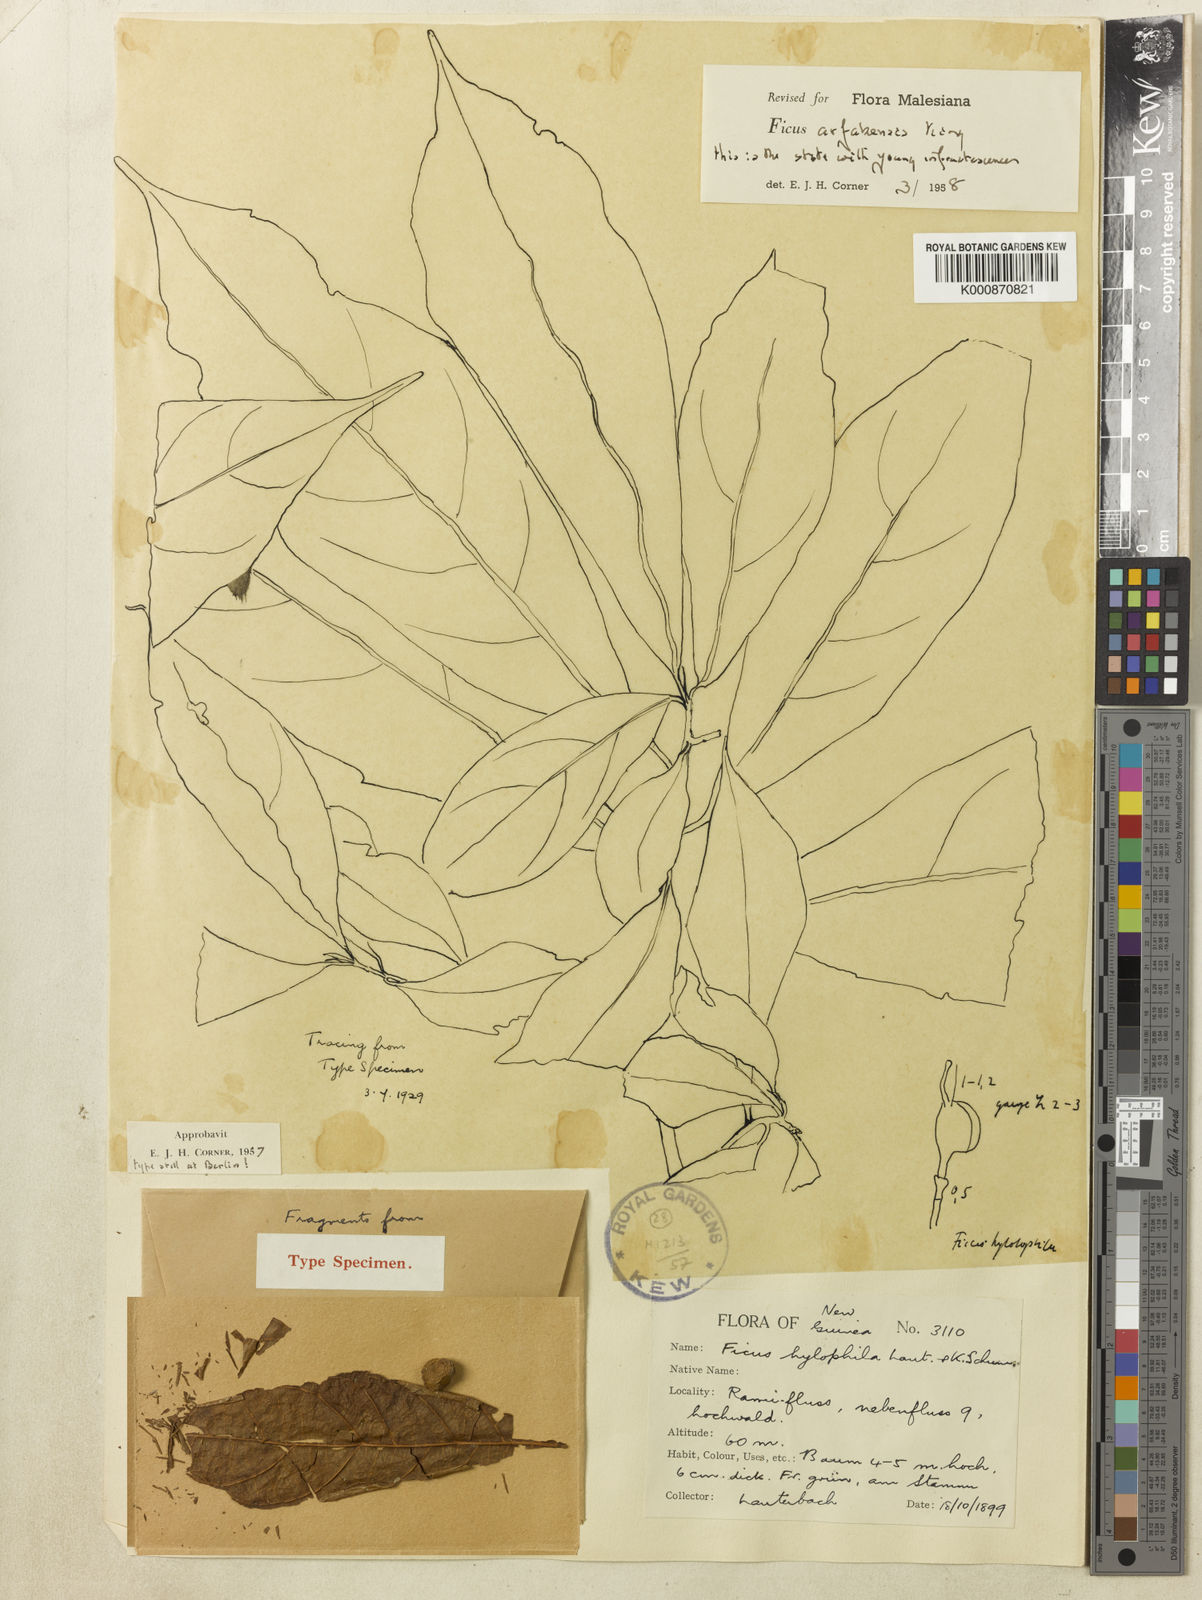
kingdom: Plantae
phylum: Tracheophyta
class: Magnoliopsida
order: Rosales
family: Moraceae
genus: Ficus
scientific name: Ficus ribes
